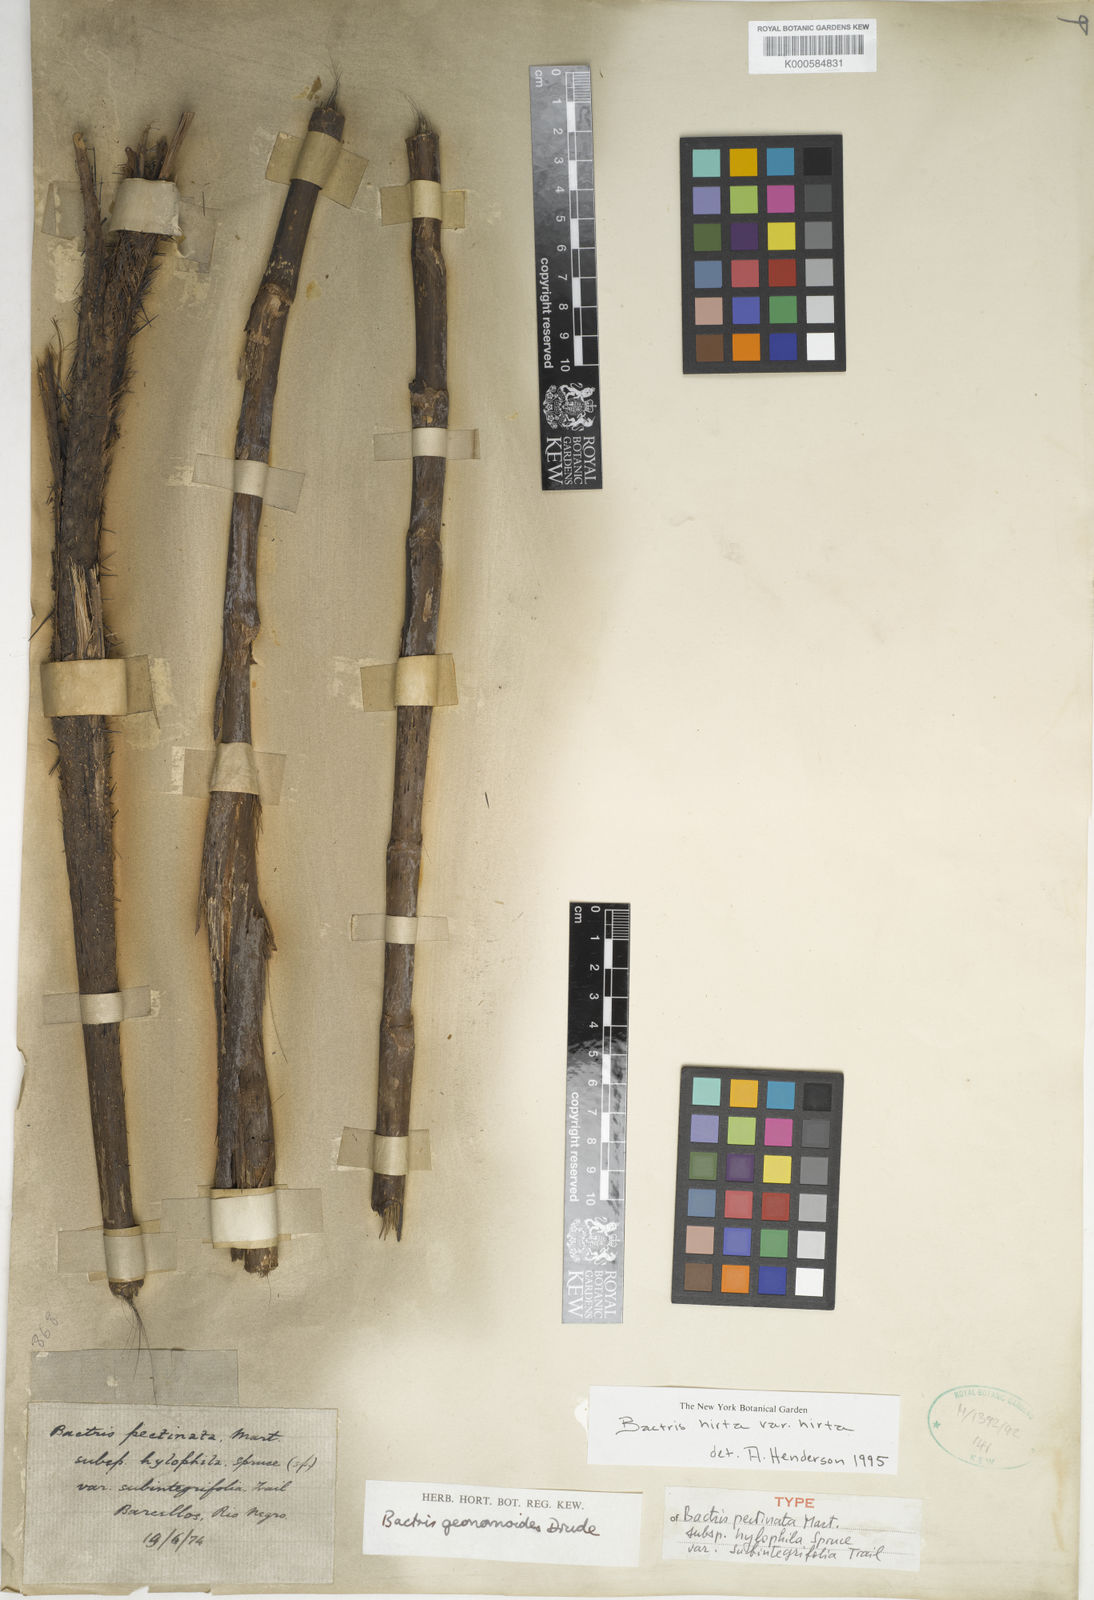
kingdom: Plantae
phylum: Tracheophyta
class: Liliopsida
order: Arecales
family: Arecaceae
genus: Bactris
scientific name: Bactris hirta
